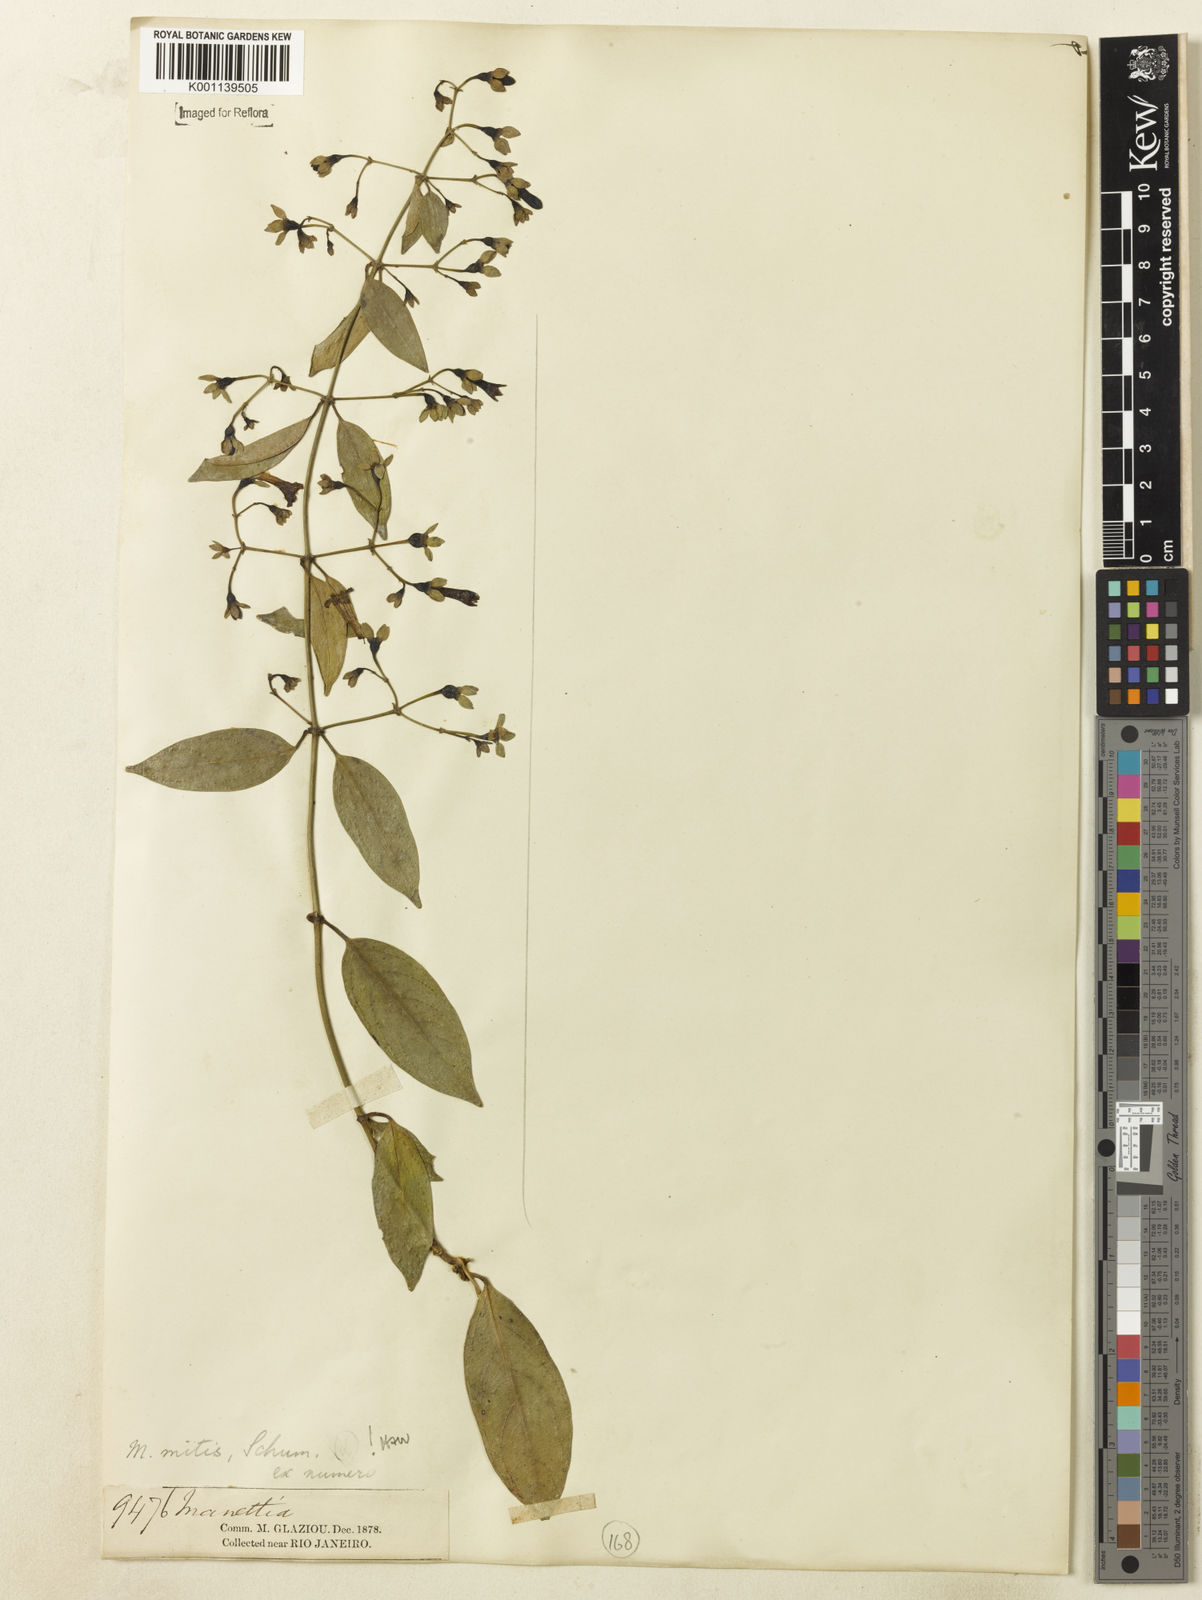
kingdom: Plantae
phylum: Tracheophyta
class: Magnoliopsida
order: Gentianales
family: Rubiaceae
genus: Manettia
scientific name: Manettia mitis
